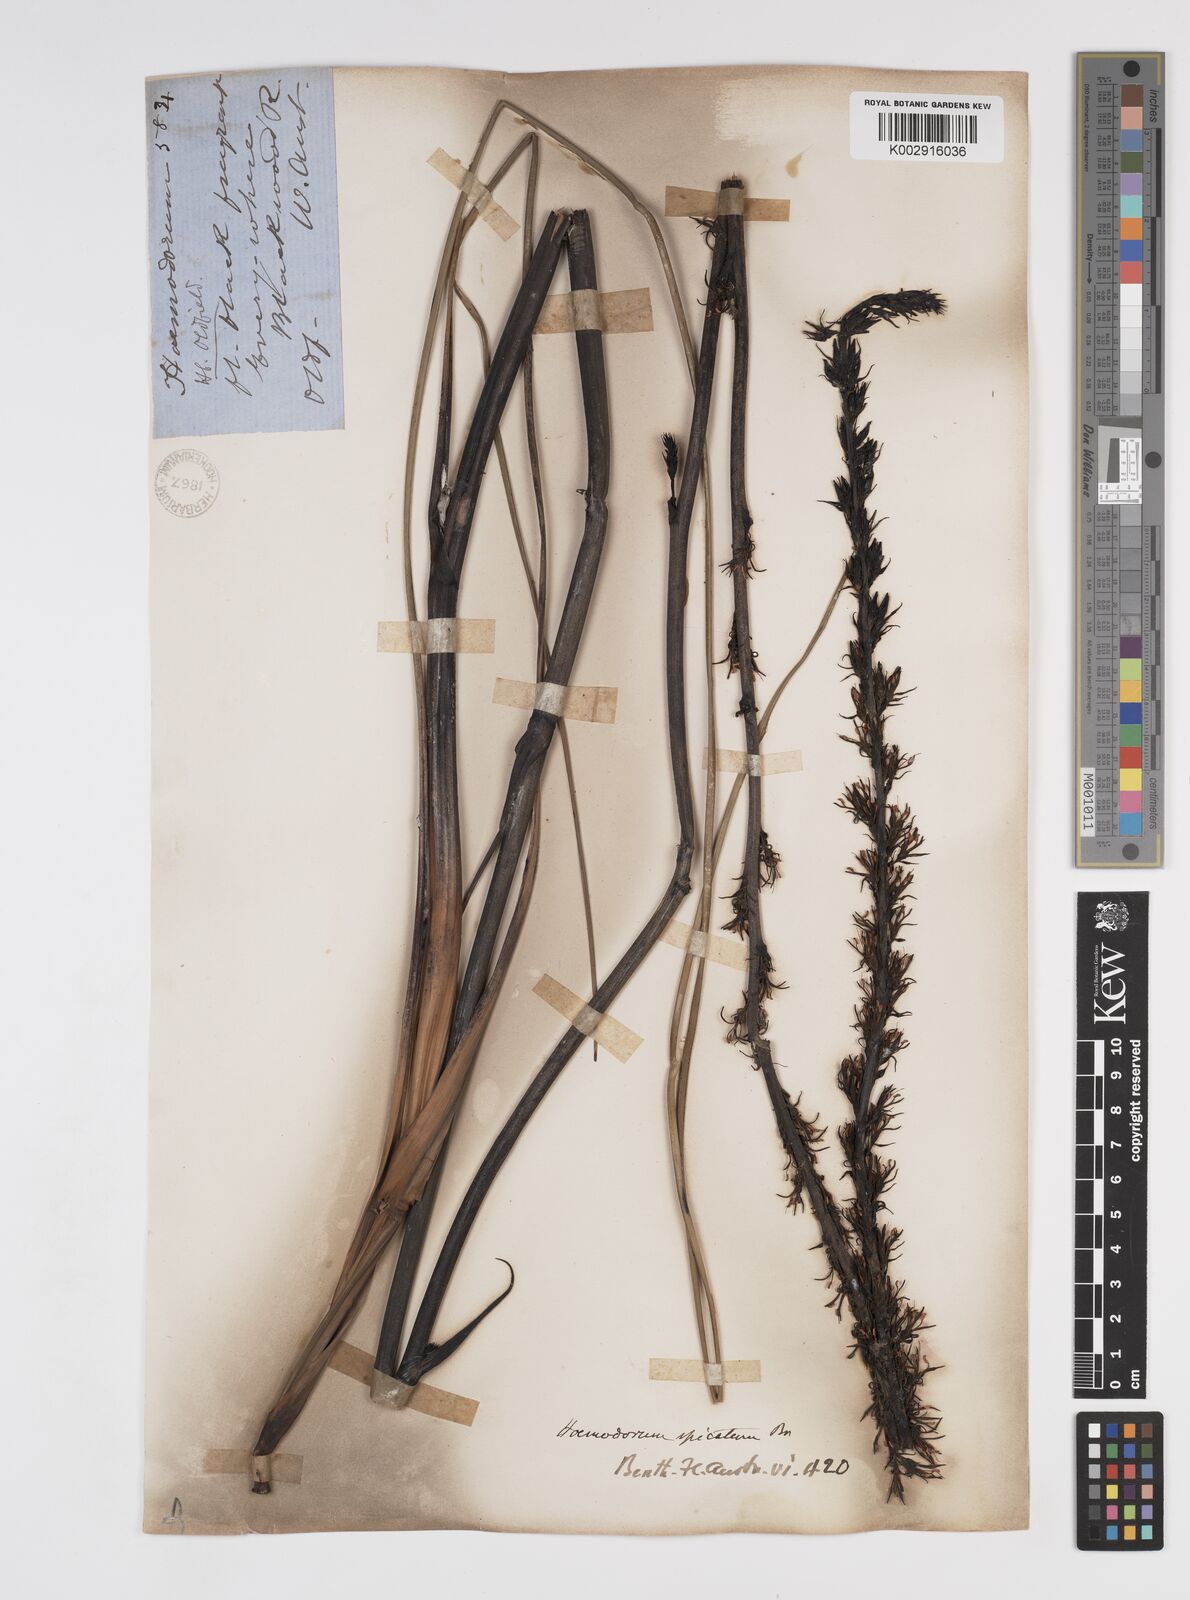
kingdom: Plantae
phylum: Tracheophyta
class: Liliopsida
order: Commelinales
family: Haemodoraceae
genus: Haemodorum
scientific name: Haemodorum spicatum
